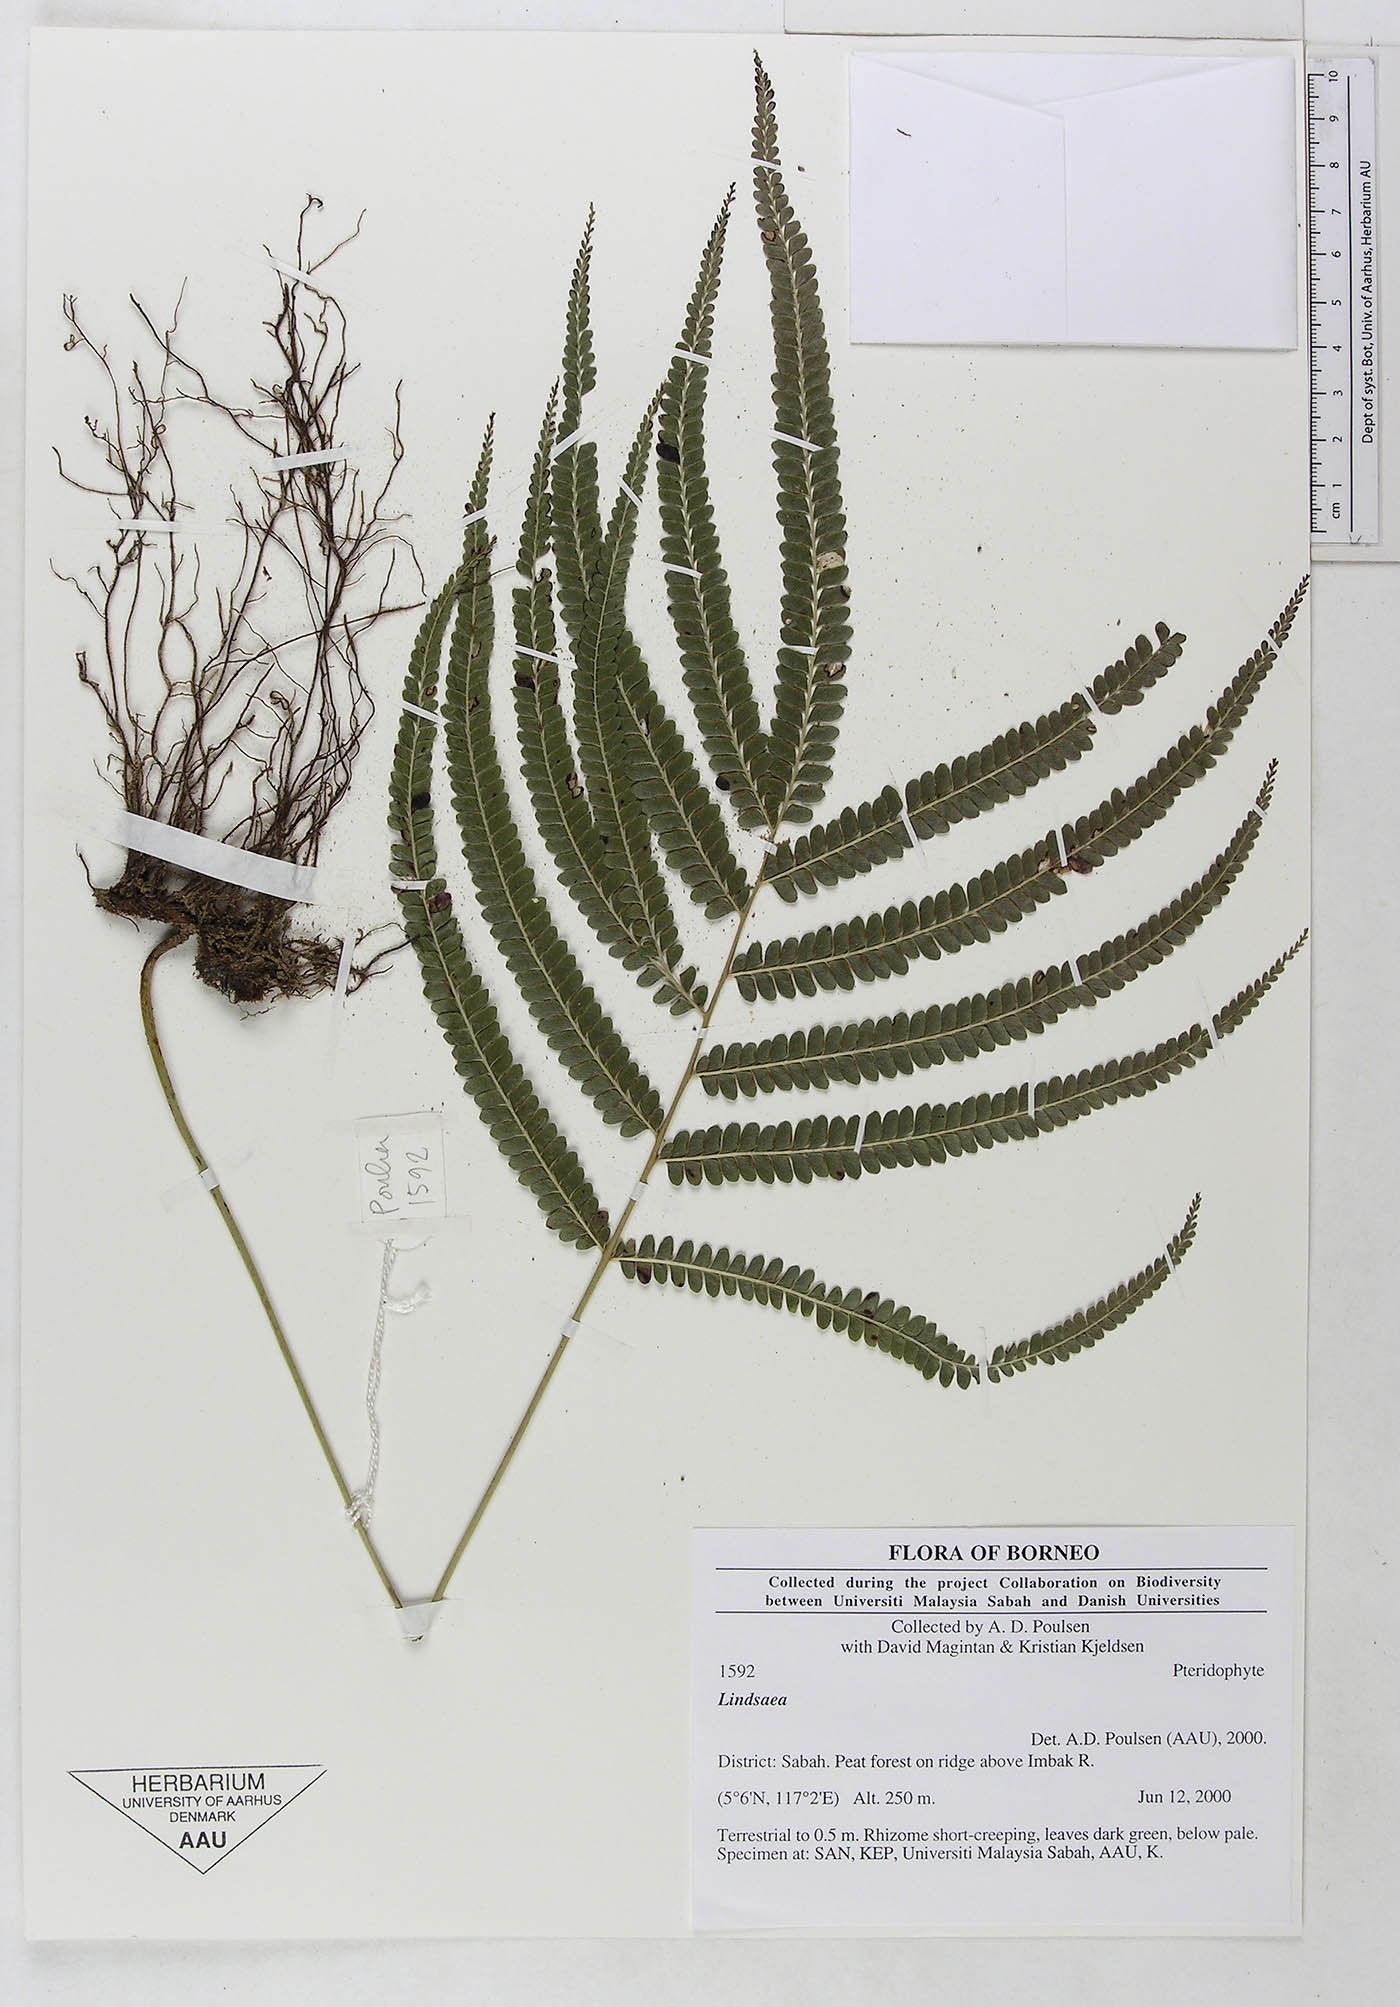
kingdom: Plantae
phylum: Tracheophyta
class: Polypodiopsida
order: Polypodiales
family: Dennstaedtiaceae
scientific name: Dennstaedtiaceae
